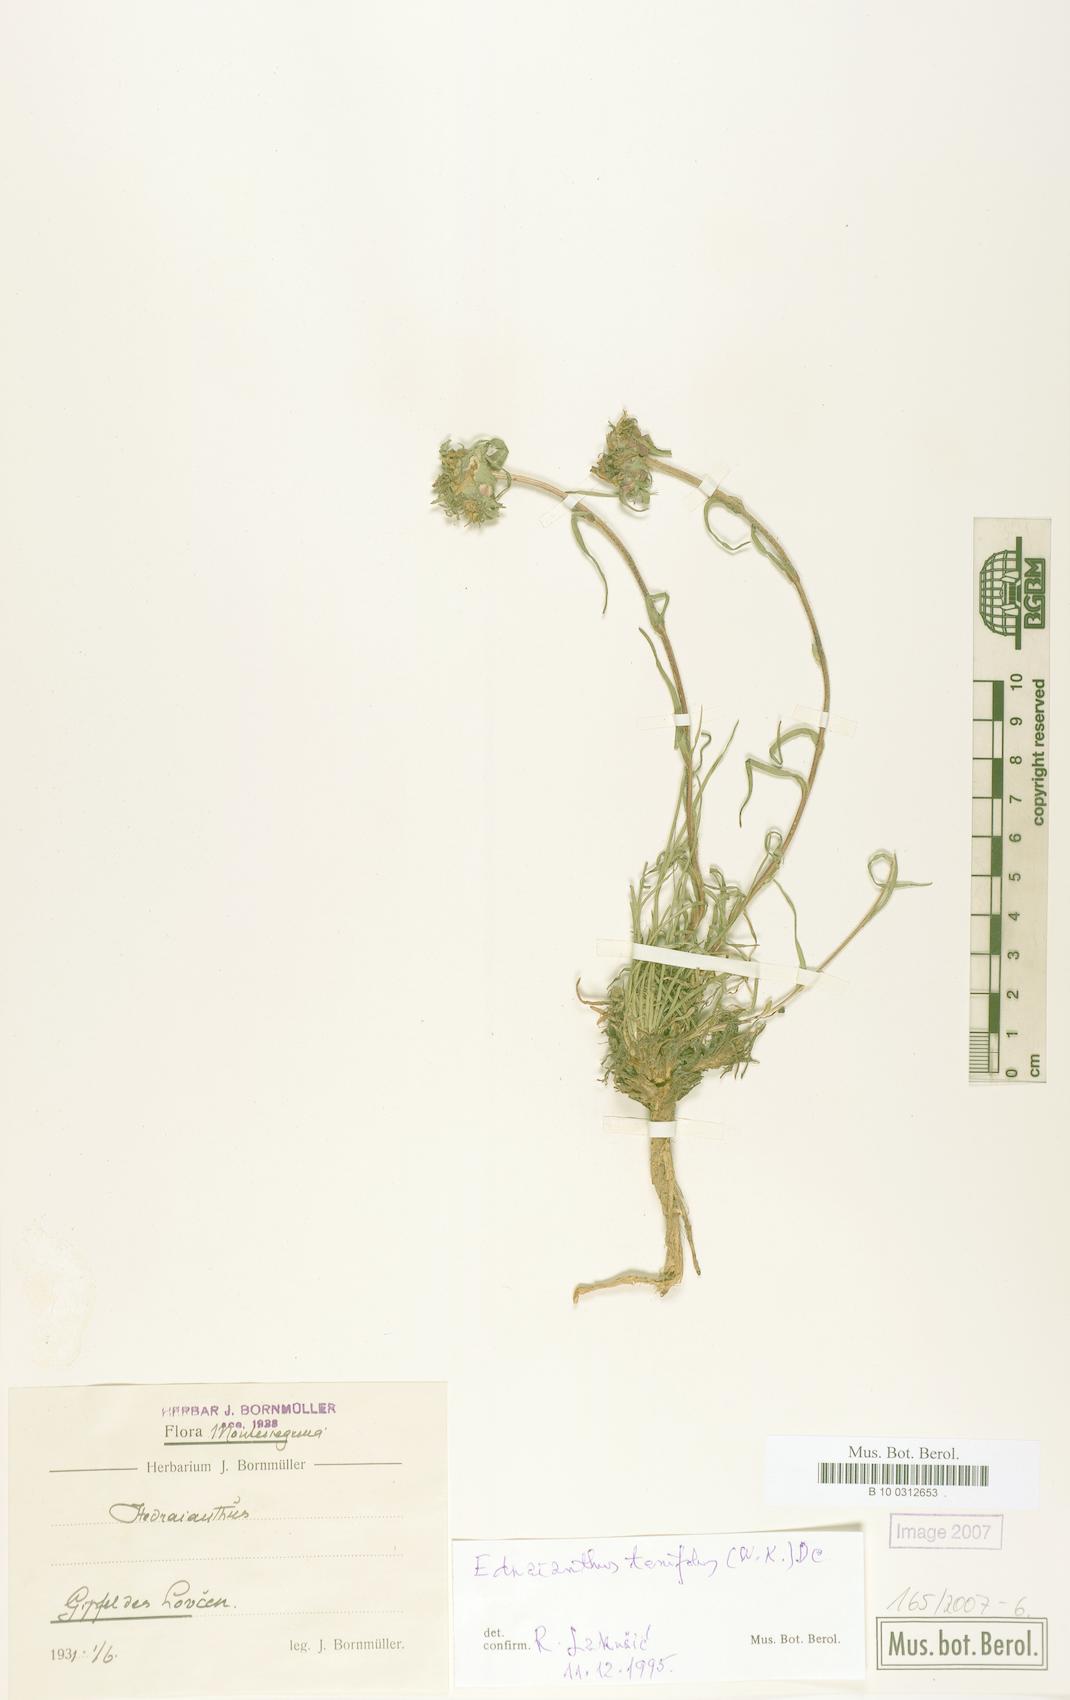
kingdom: Plantae
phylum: Tracheophyta
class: Magnoliopsida
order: Asterales
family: Campanulaceae
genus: Edraianthus
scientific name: Edraianthus tenuifolius
